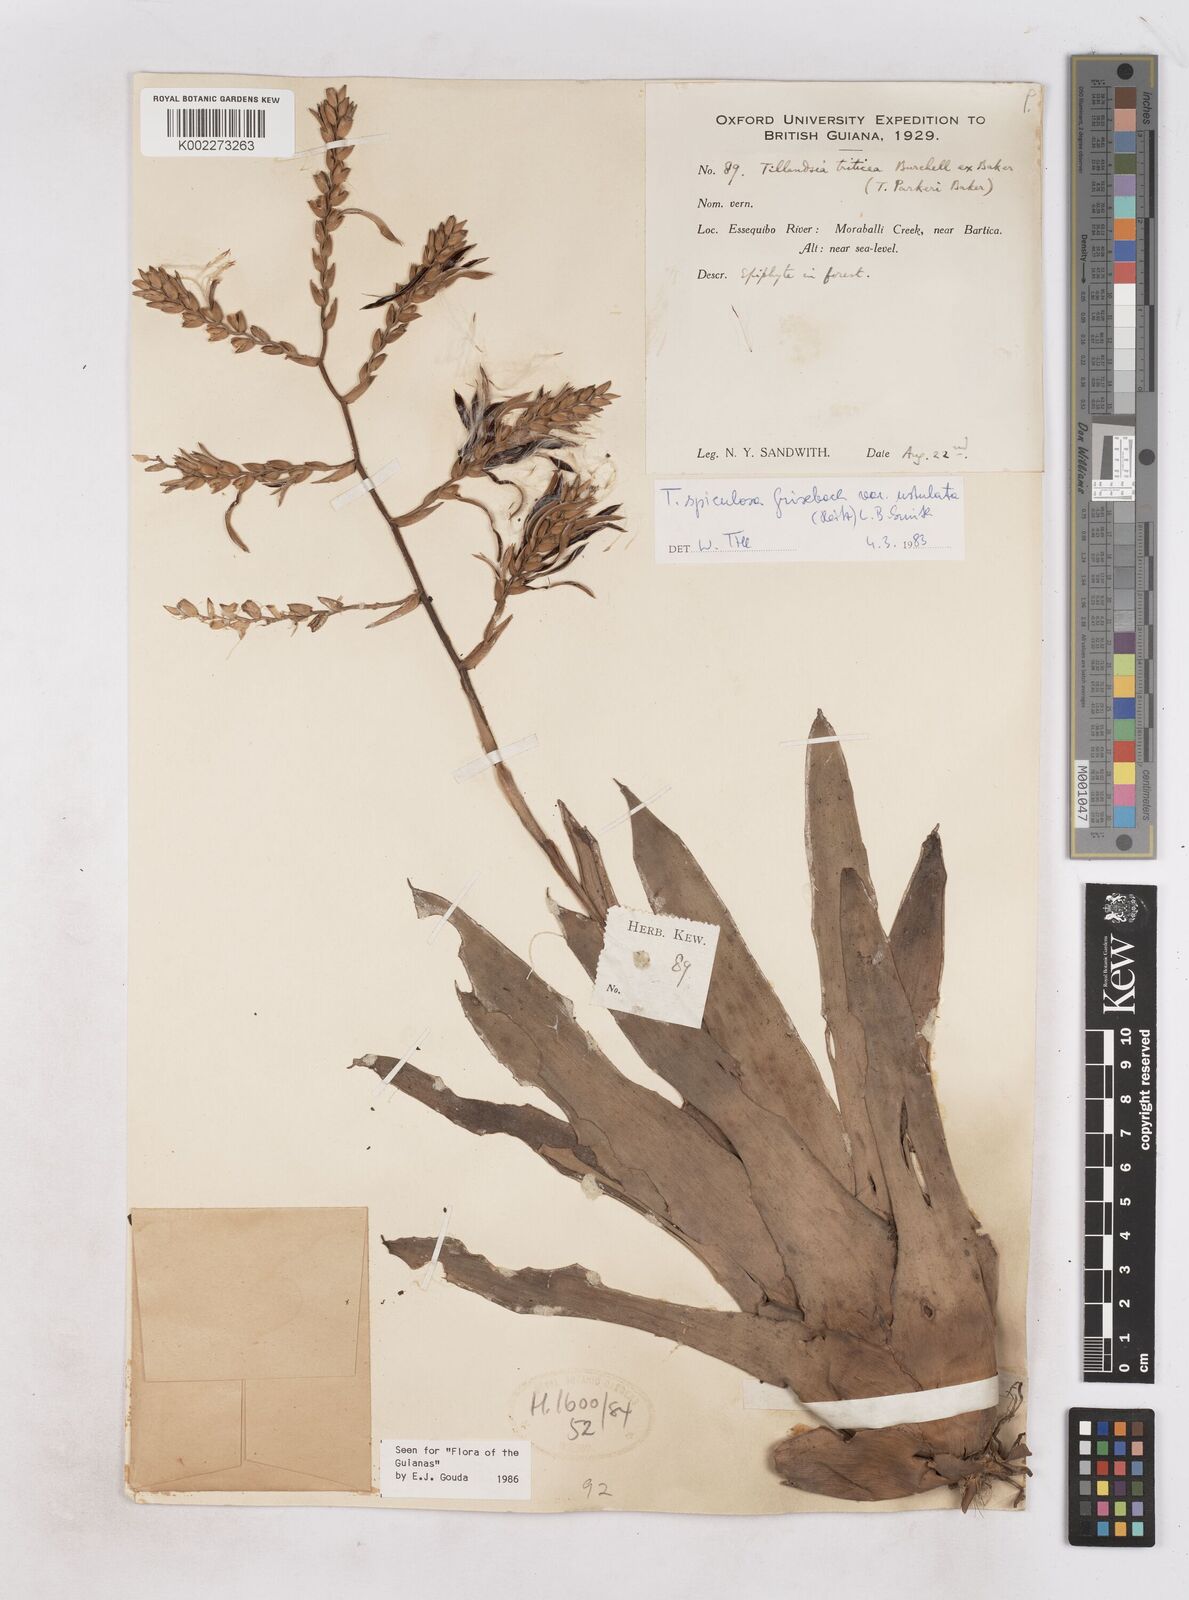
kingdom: Plantae
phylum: Tracheophyta
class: Liliopsida
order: Poales
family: Bromeliaceae
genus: Racinaea
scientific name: Racinaea spiculosa
